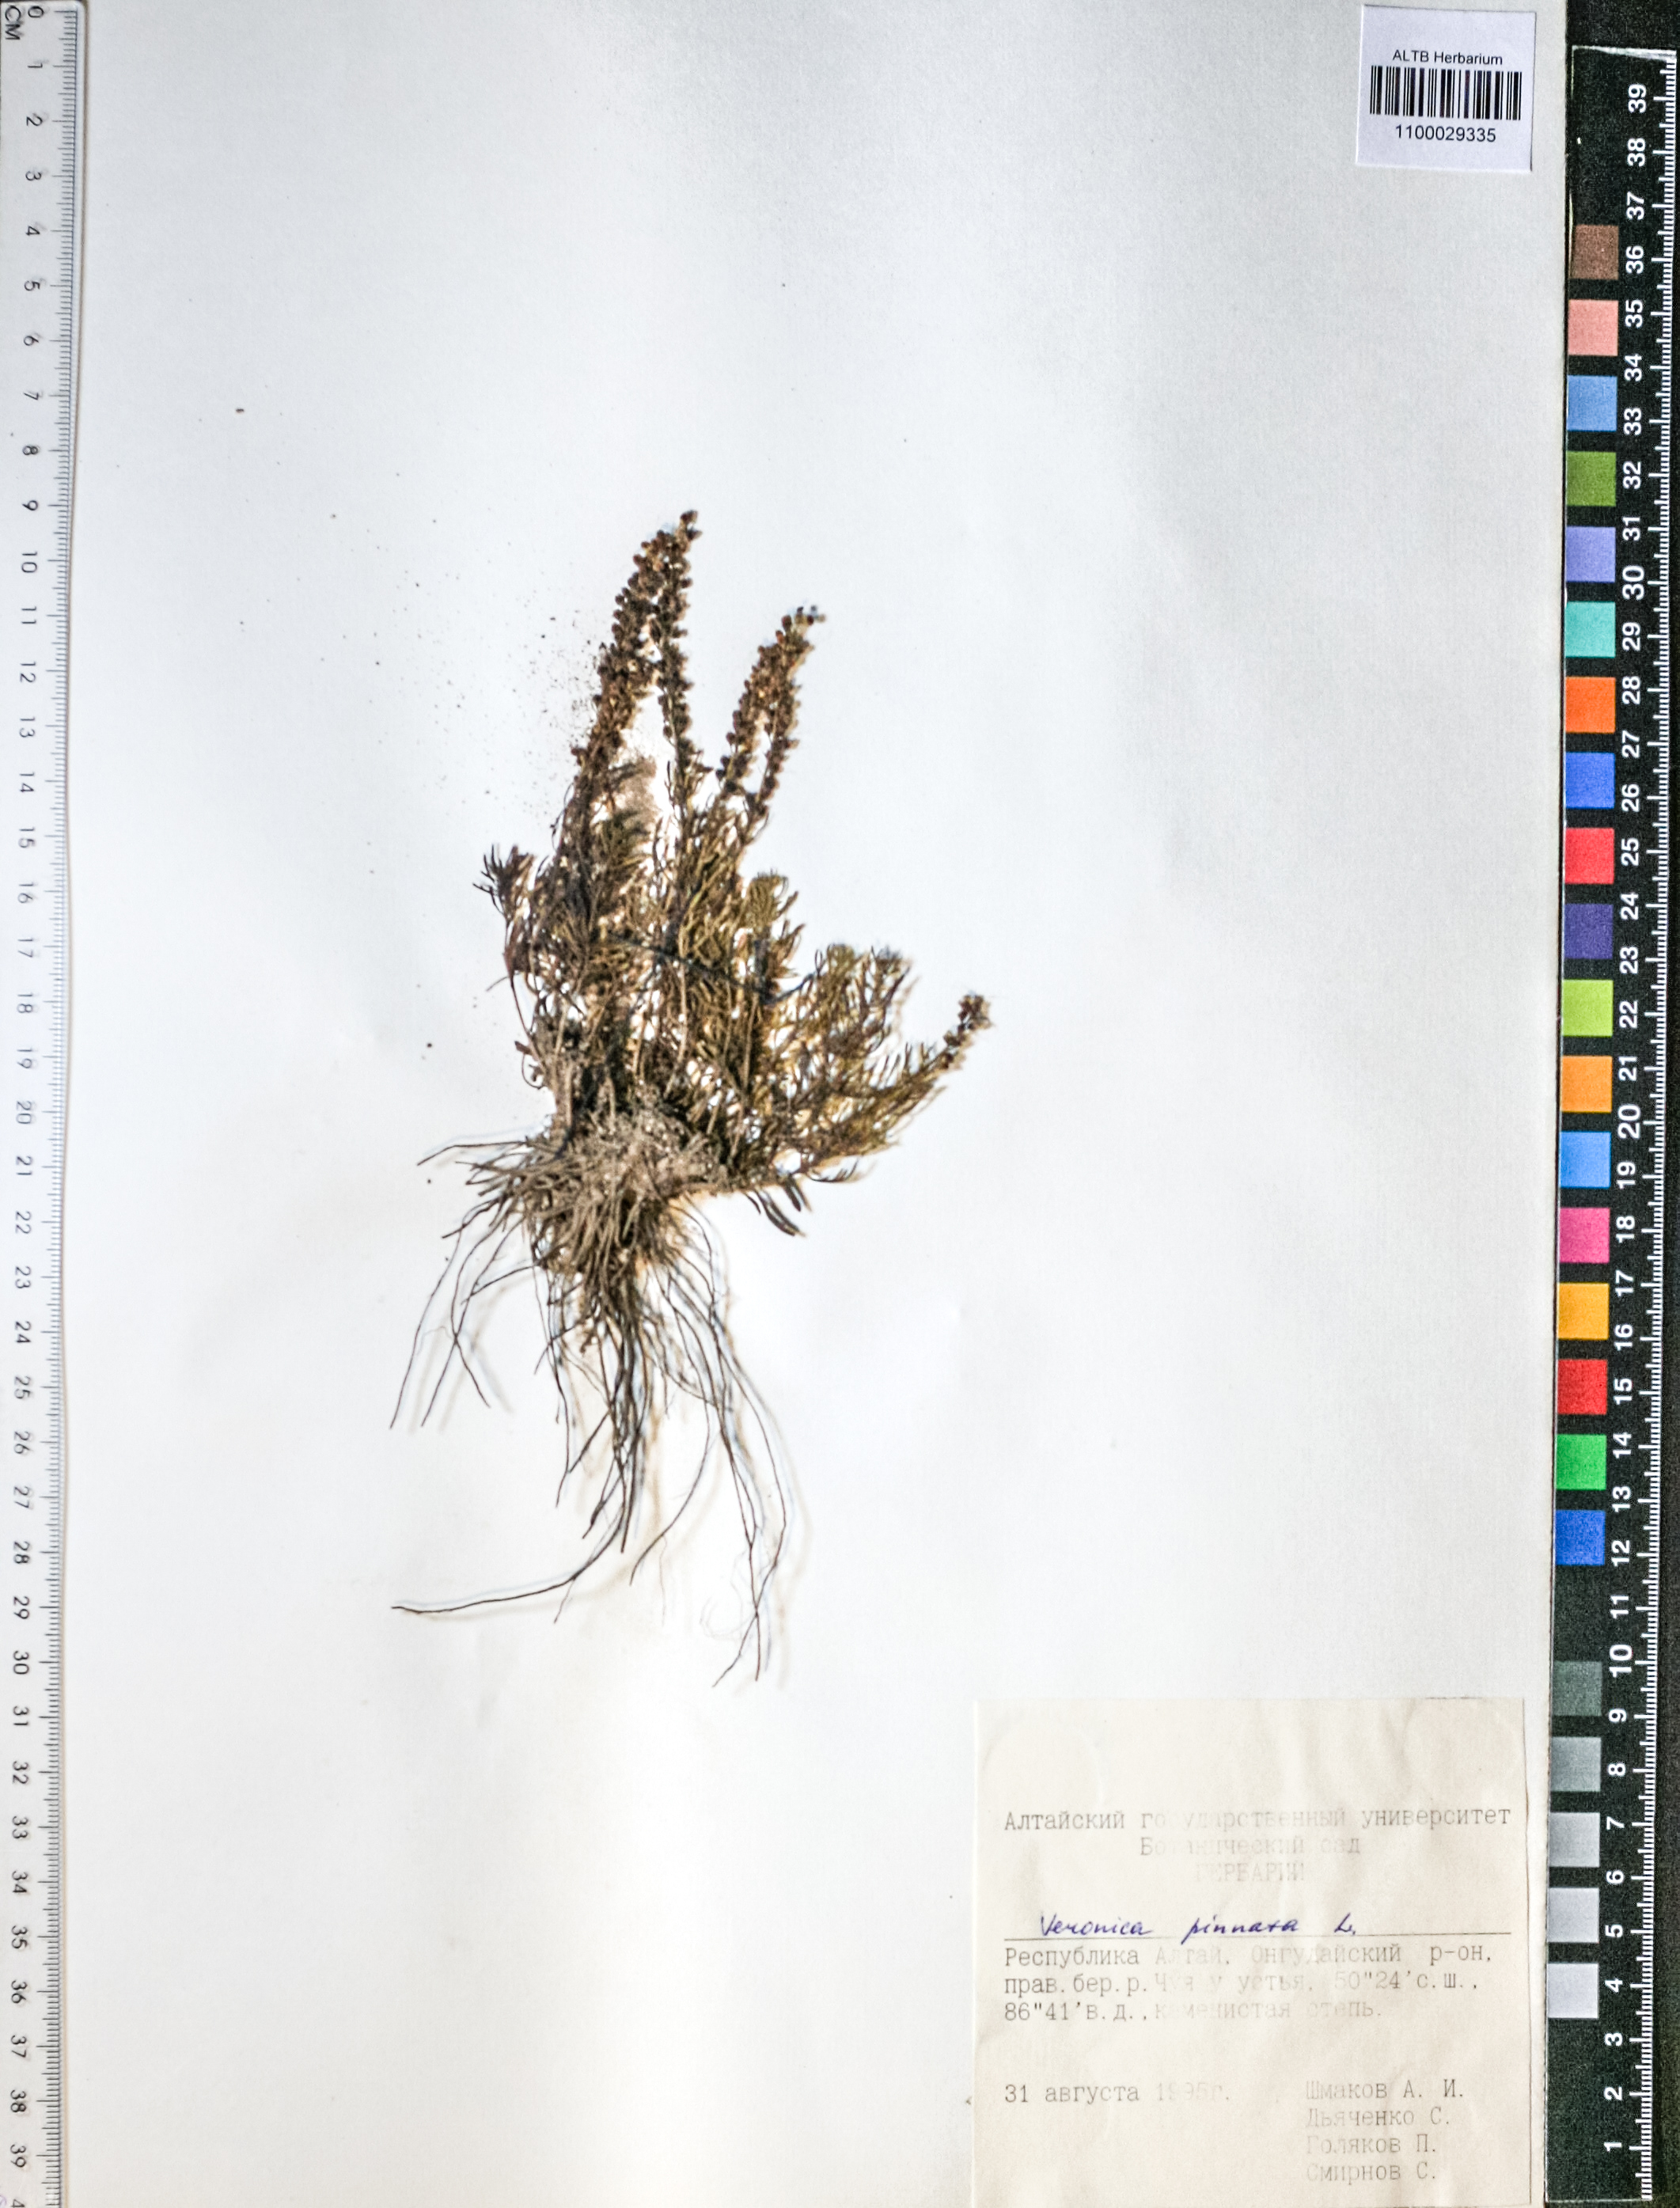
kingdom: Plantae
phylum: Tracheophyta
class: Magnoliopsida
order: Lamiales
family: Plantaginaceae
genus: Veronica
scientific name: Veronica pinnata
